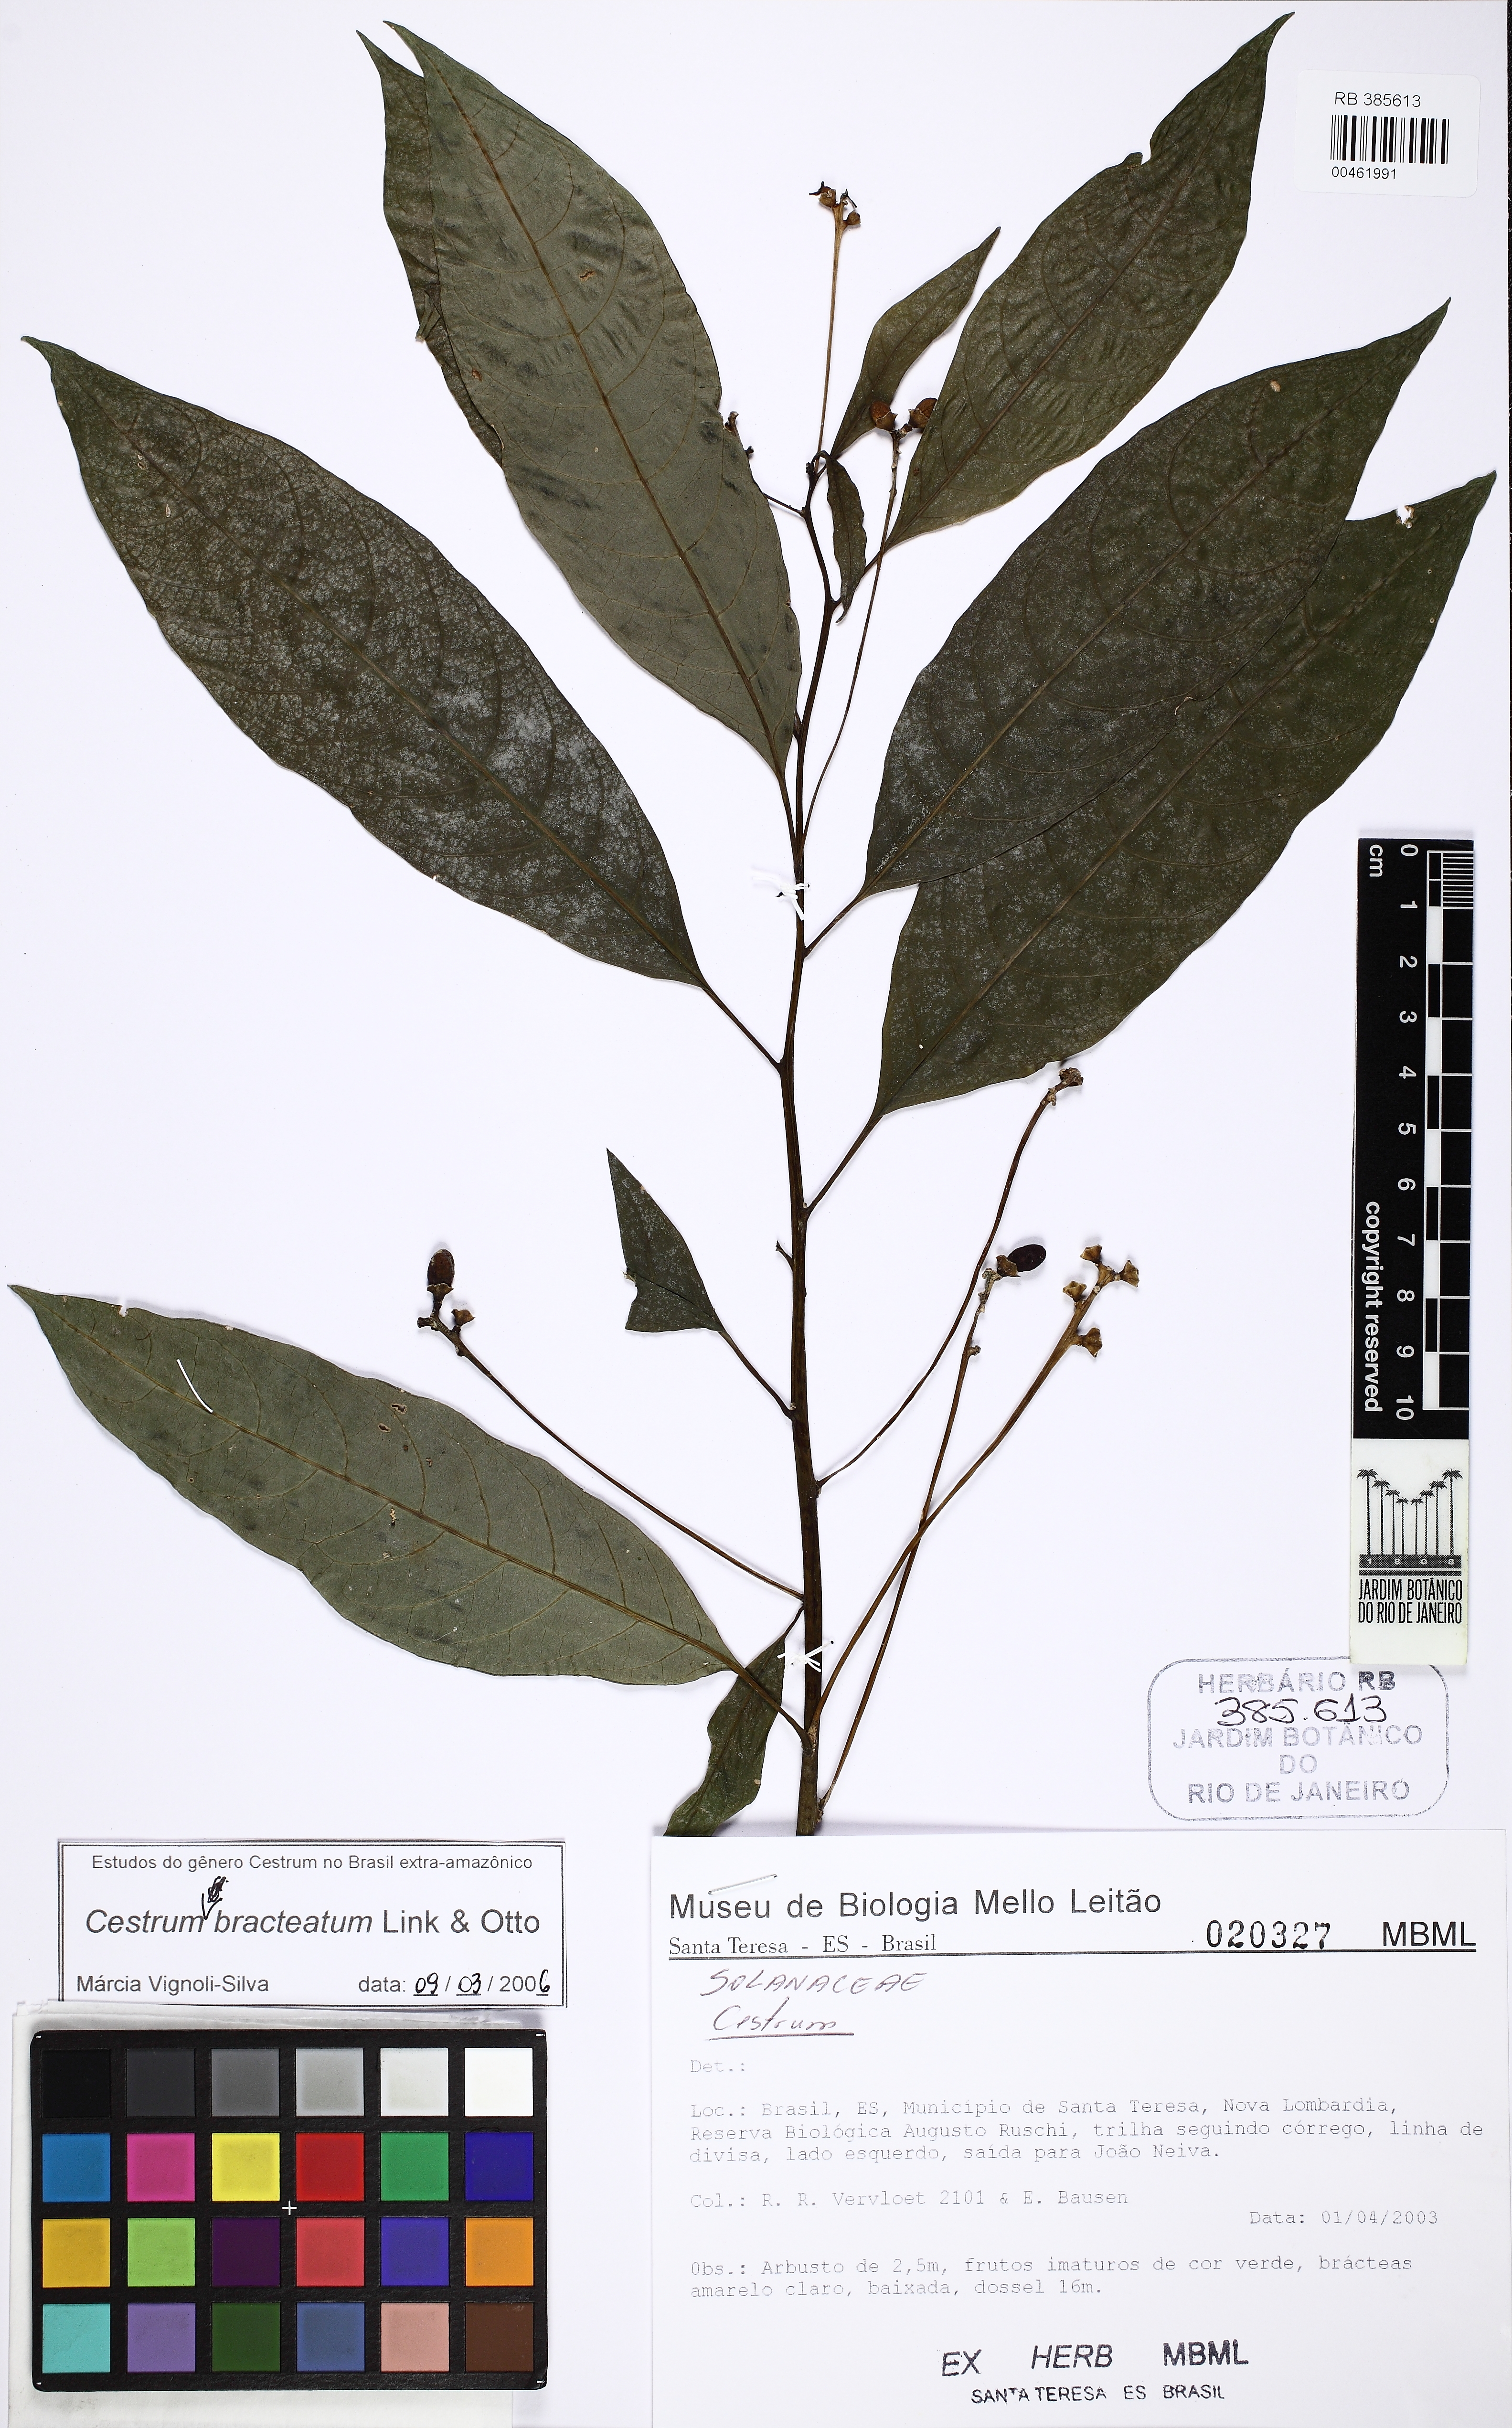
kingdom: Plantae
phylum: Tracheophyta
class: Magnoliopsida
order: Solanales
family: Solanaceae
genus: Cestrum
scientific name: Cestrum bracteatum
